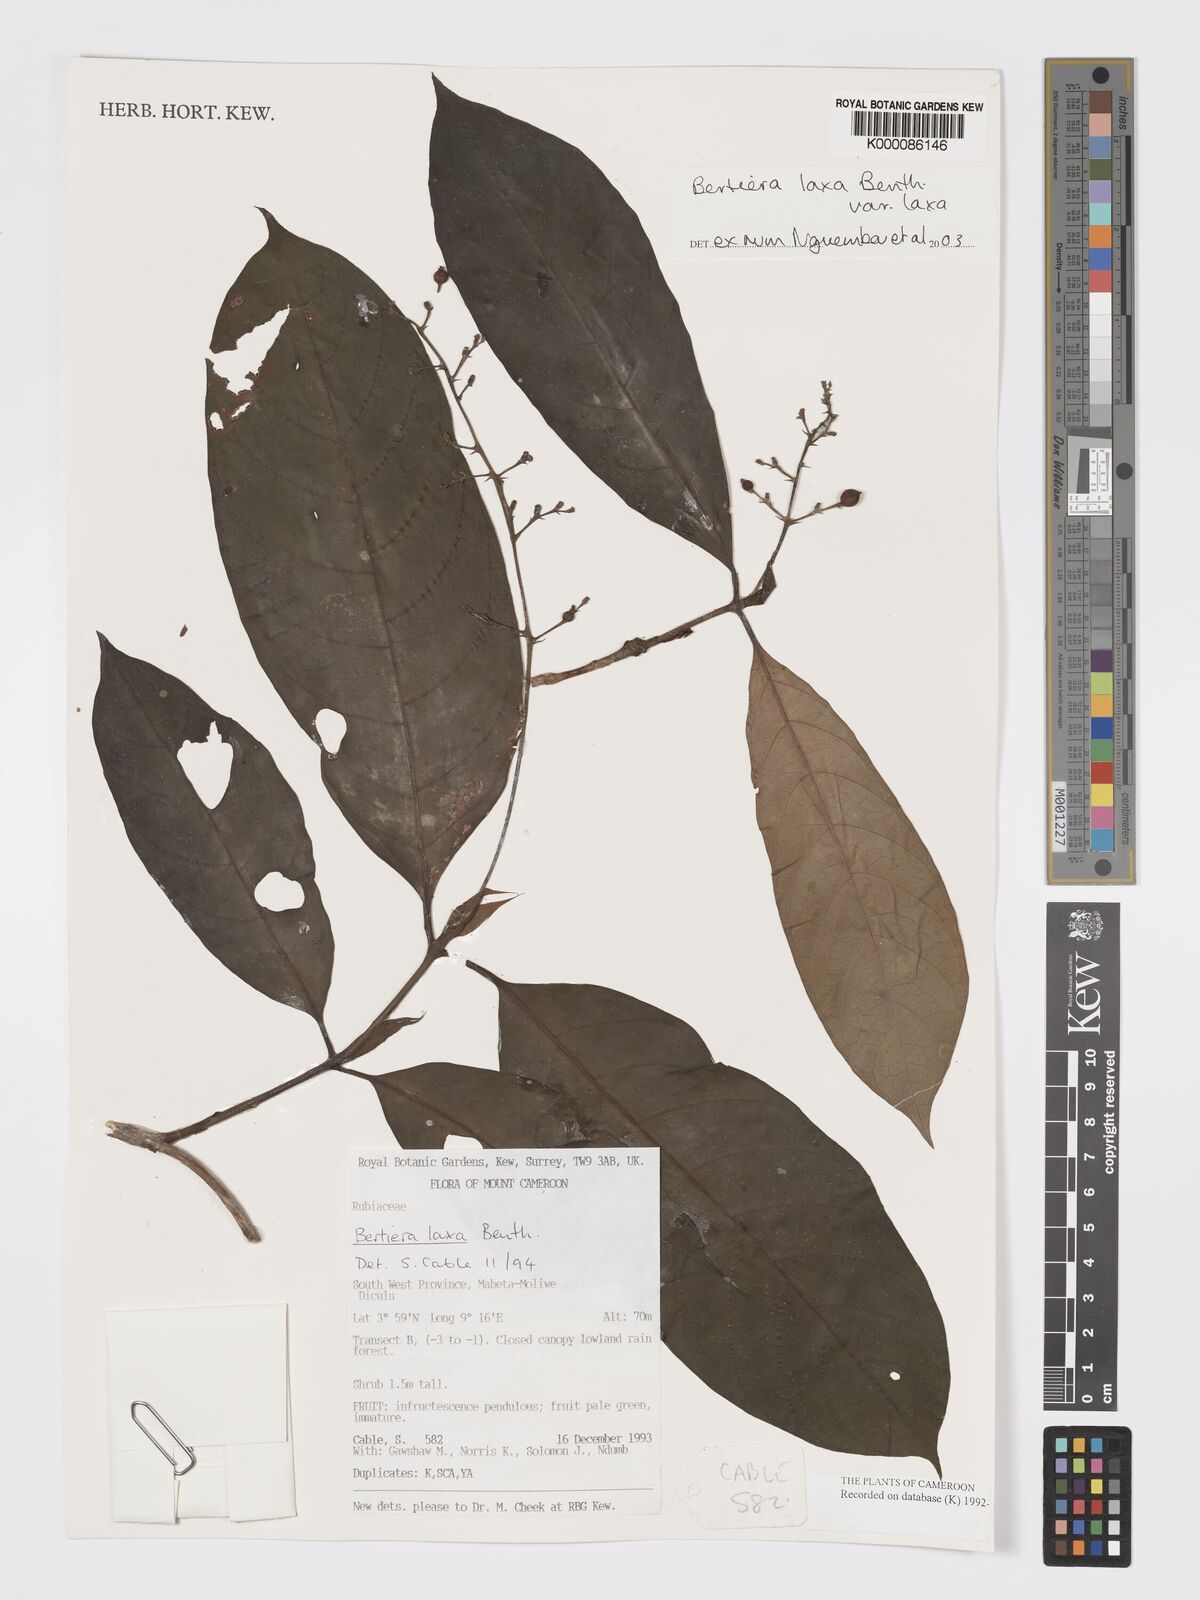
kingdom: Plantae
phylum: Tracheophyta
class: Magnoliopsida
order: Gentianales
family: Rubiaceae
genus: Bertiera
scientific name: Bertiera laxa
